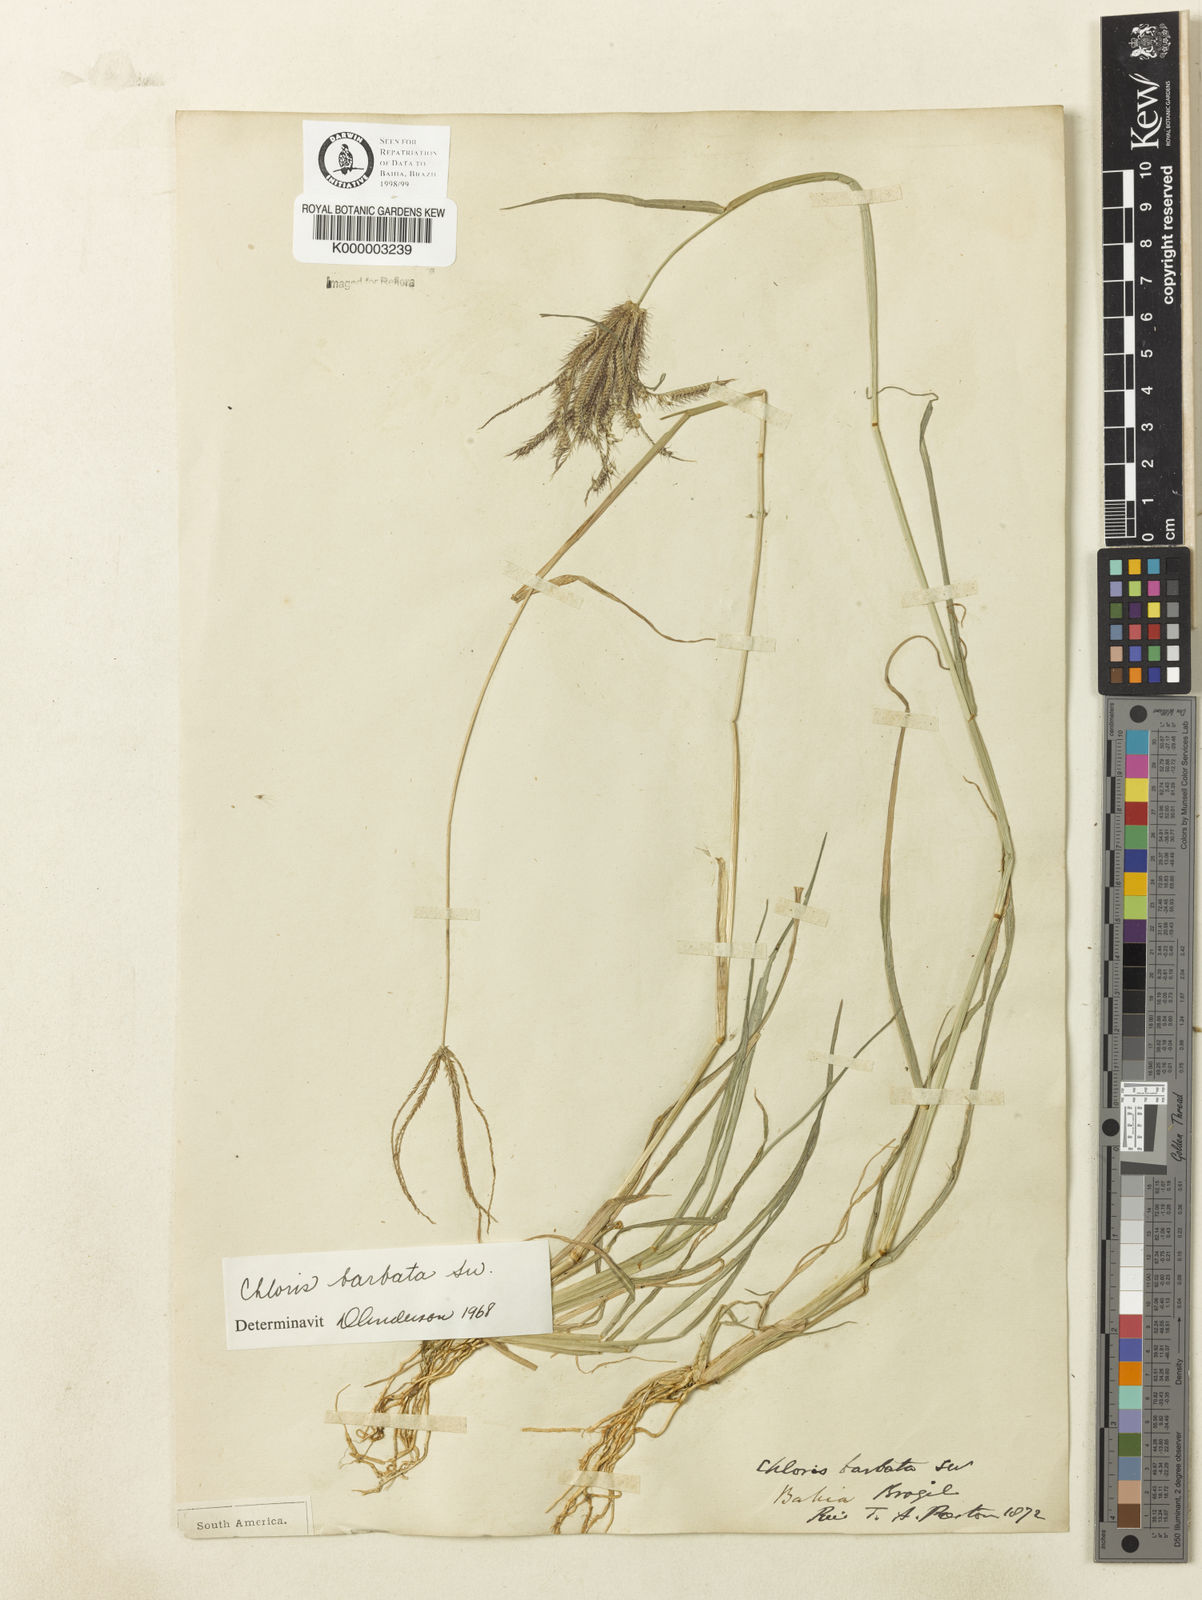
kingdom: Plantae
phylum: Tracheophyta
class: Liliopsida
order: Poales
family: Poaceae
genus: Chloris
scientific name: Chloris
